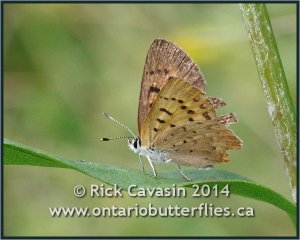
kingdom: Animalia
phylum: Arthropoda
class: Insecta
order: Lepidoptera
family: Lycaenidae
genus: Epidemia
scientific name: Epidemia dorcas
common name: Dorcas Copper
